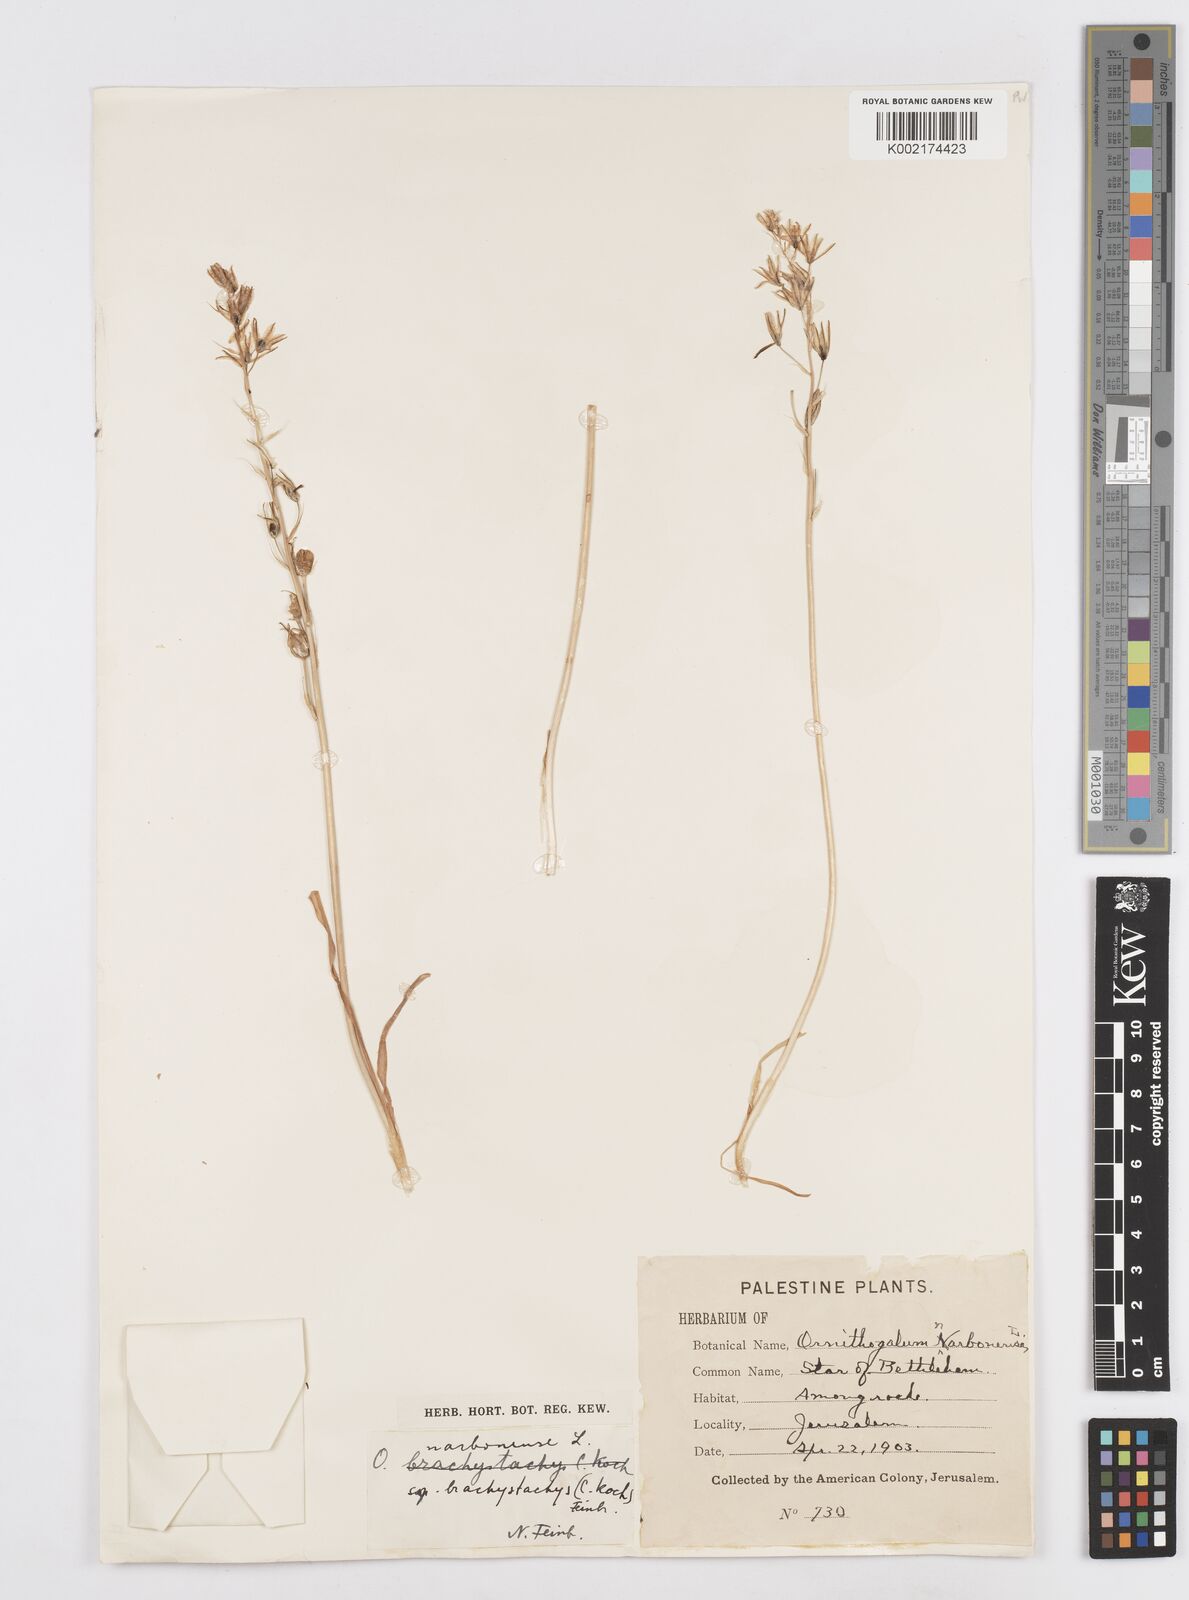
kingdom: Plantae
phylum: Tracheophyta
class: Liliopsida
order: Asparagales
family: Asparagaceae
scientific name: Asparagaceae
